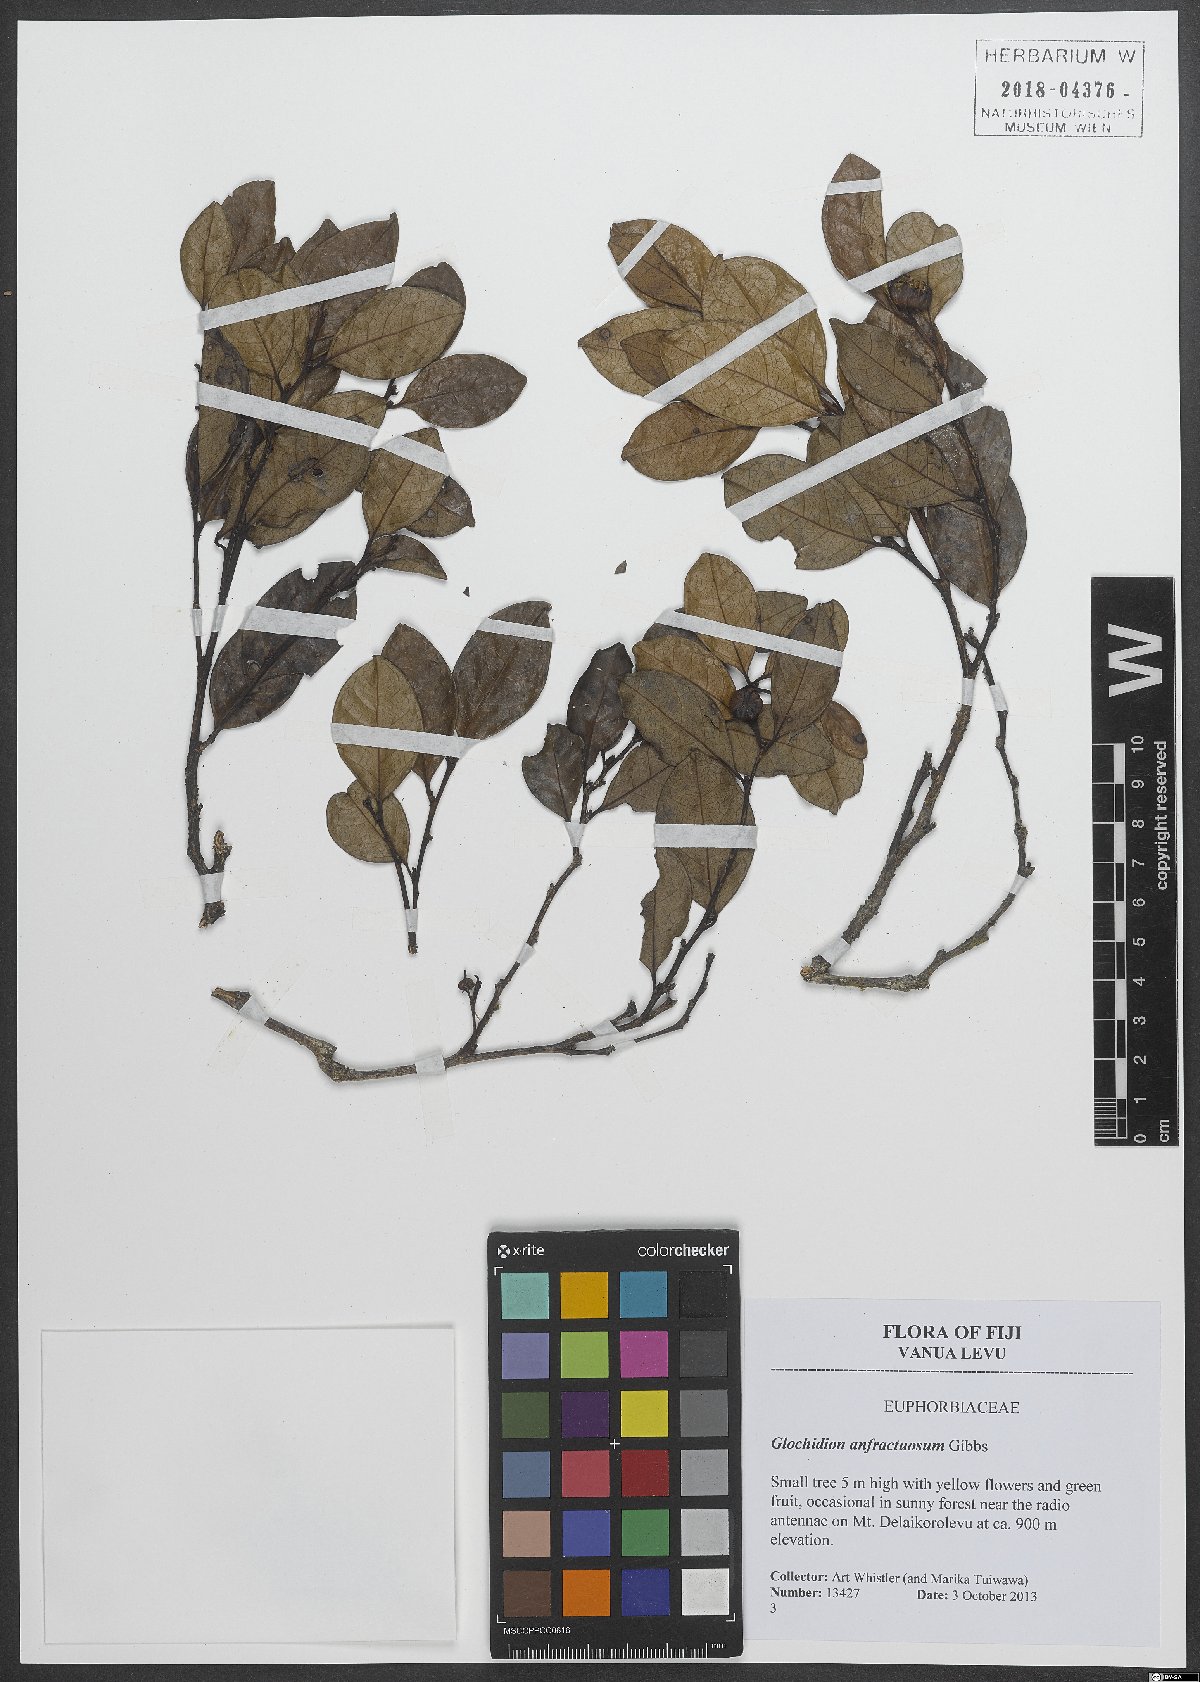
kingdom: Plantae
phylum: Tracheophyta
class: Magnoliopsida
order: Malpighiales
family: Phyllanthaceae
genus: Glochidion
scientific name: Glochidion anfractuosum
